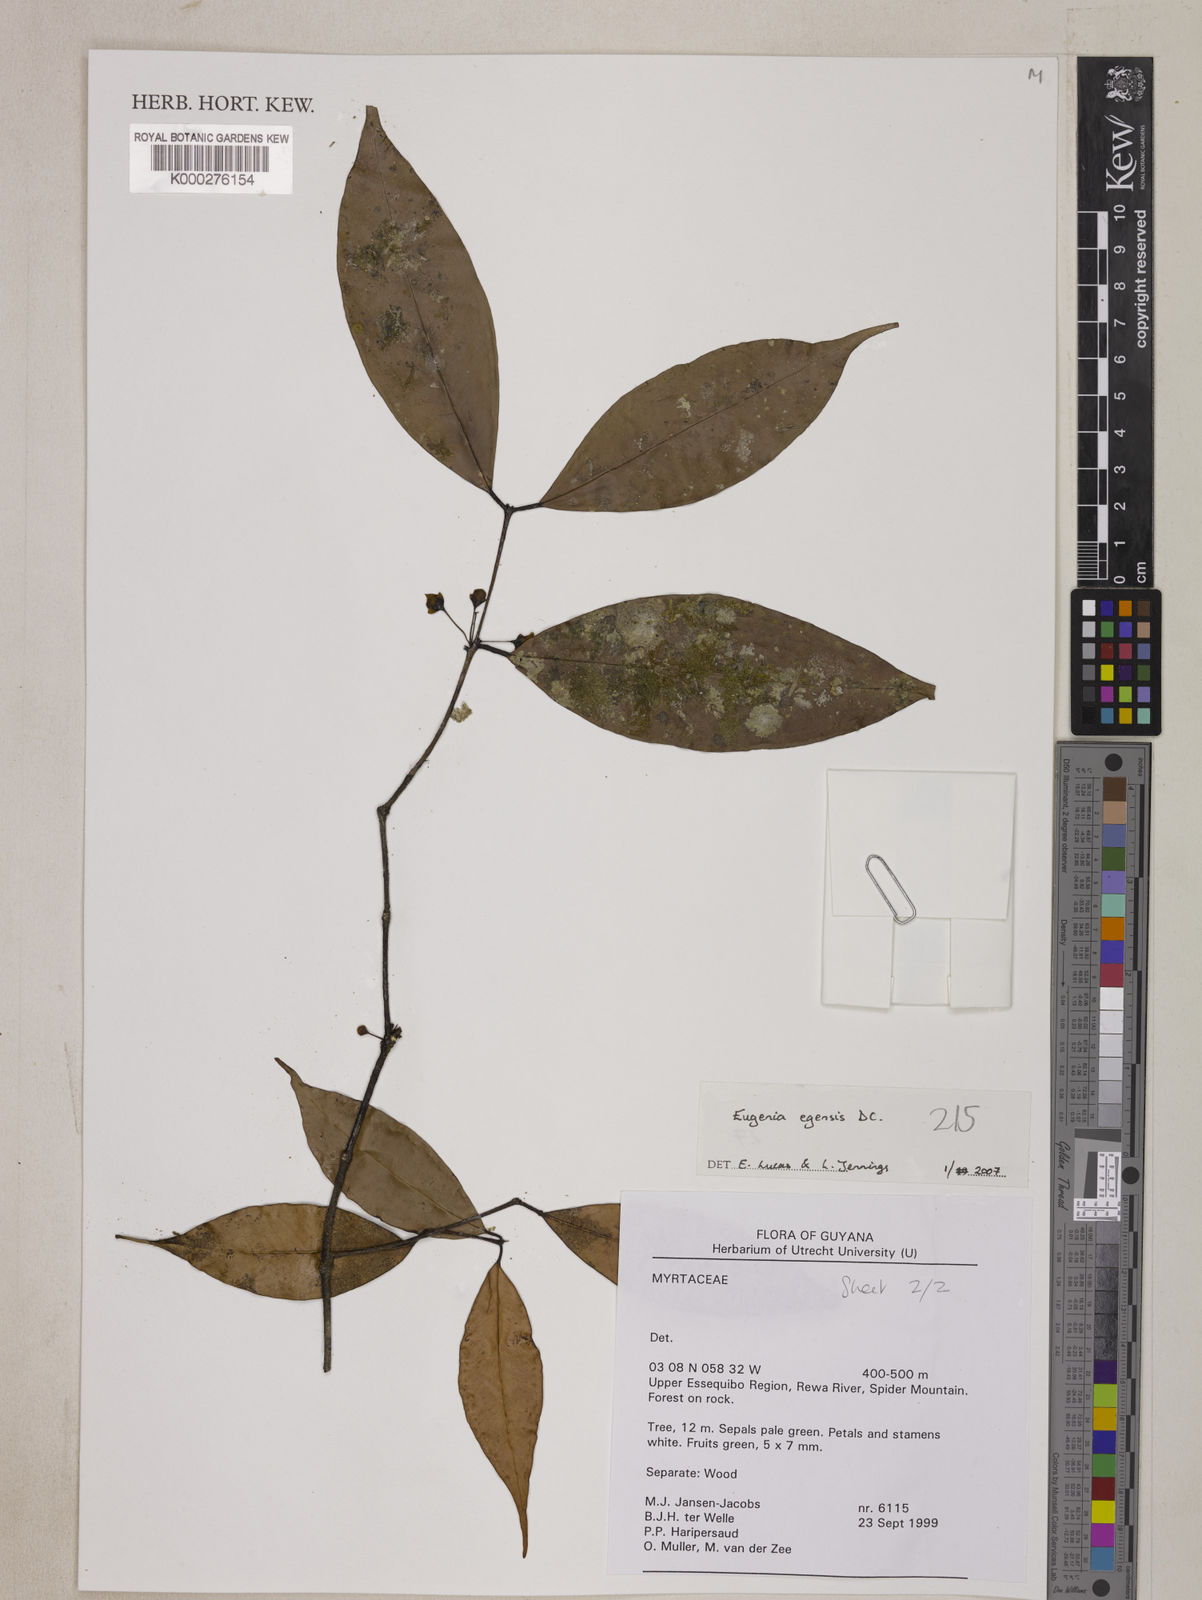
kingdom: Plantae
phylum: Tracheophyta
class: Magnoliopsida
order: Myrtales
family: Myrtaceae
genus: Eugenia
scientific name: Eugenia egensis
